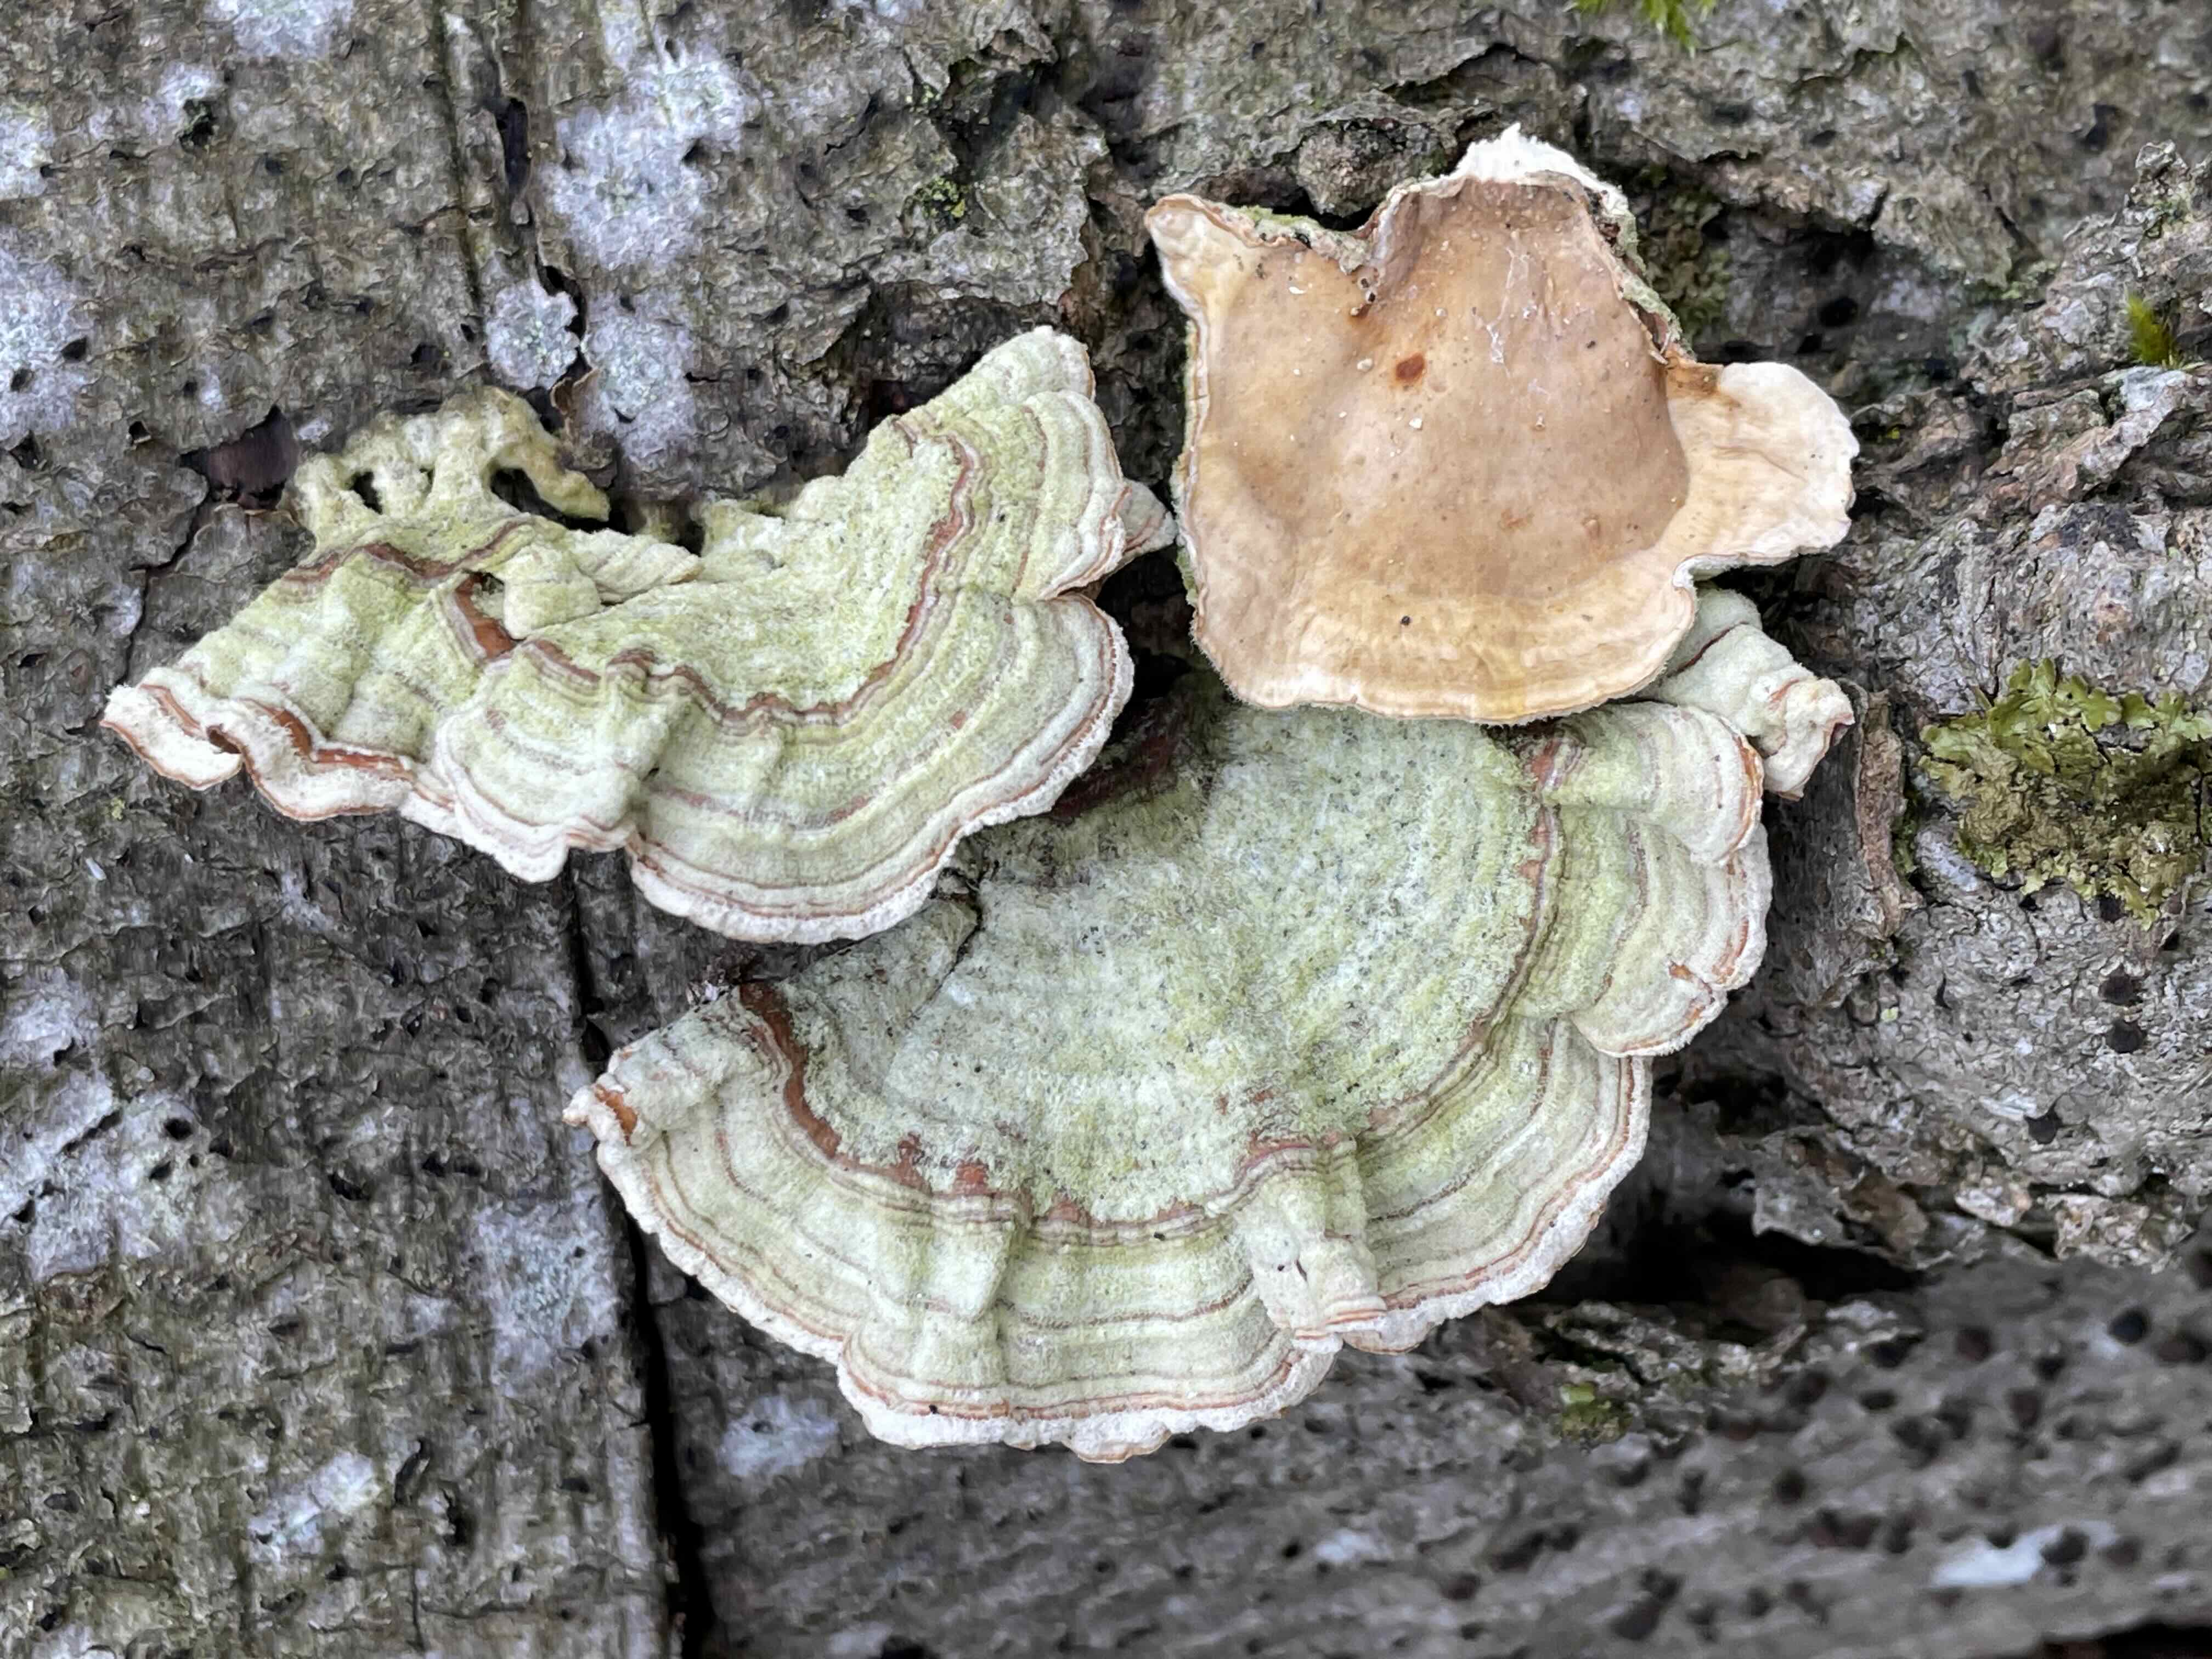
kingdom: Fungi
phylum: Basidiomycota
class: Agaricomycetes
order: Russulales
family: Stereaceae
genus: Stereum
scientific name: Stereum subtomentosum
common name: smuk lædersvamp
